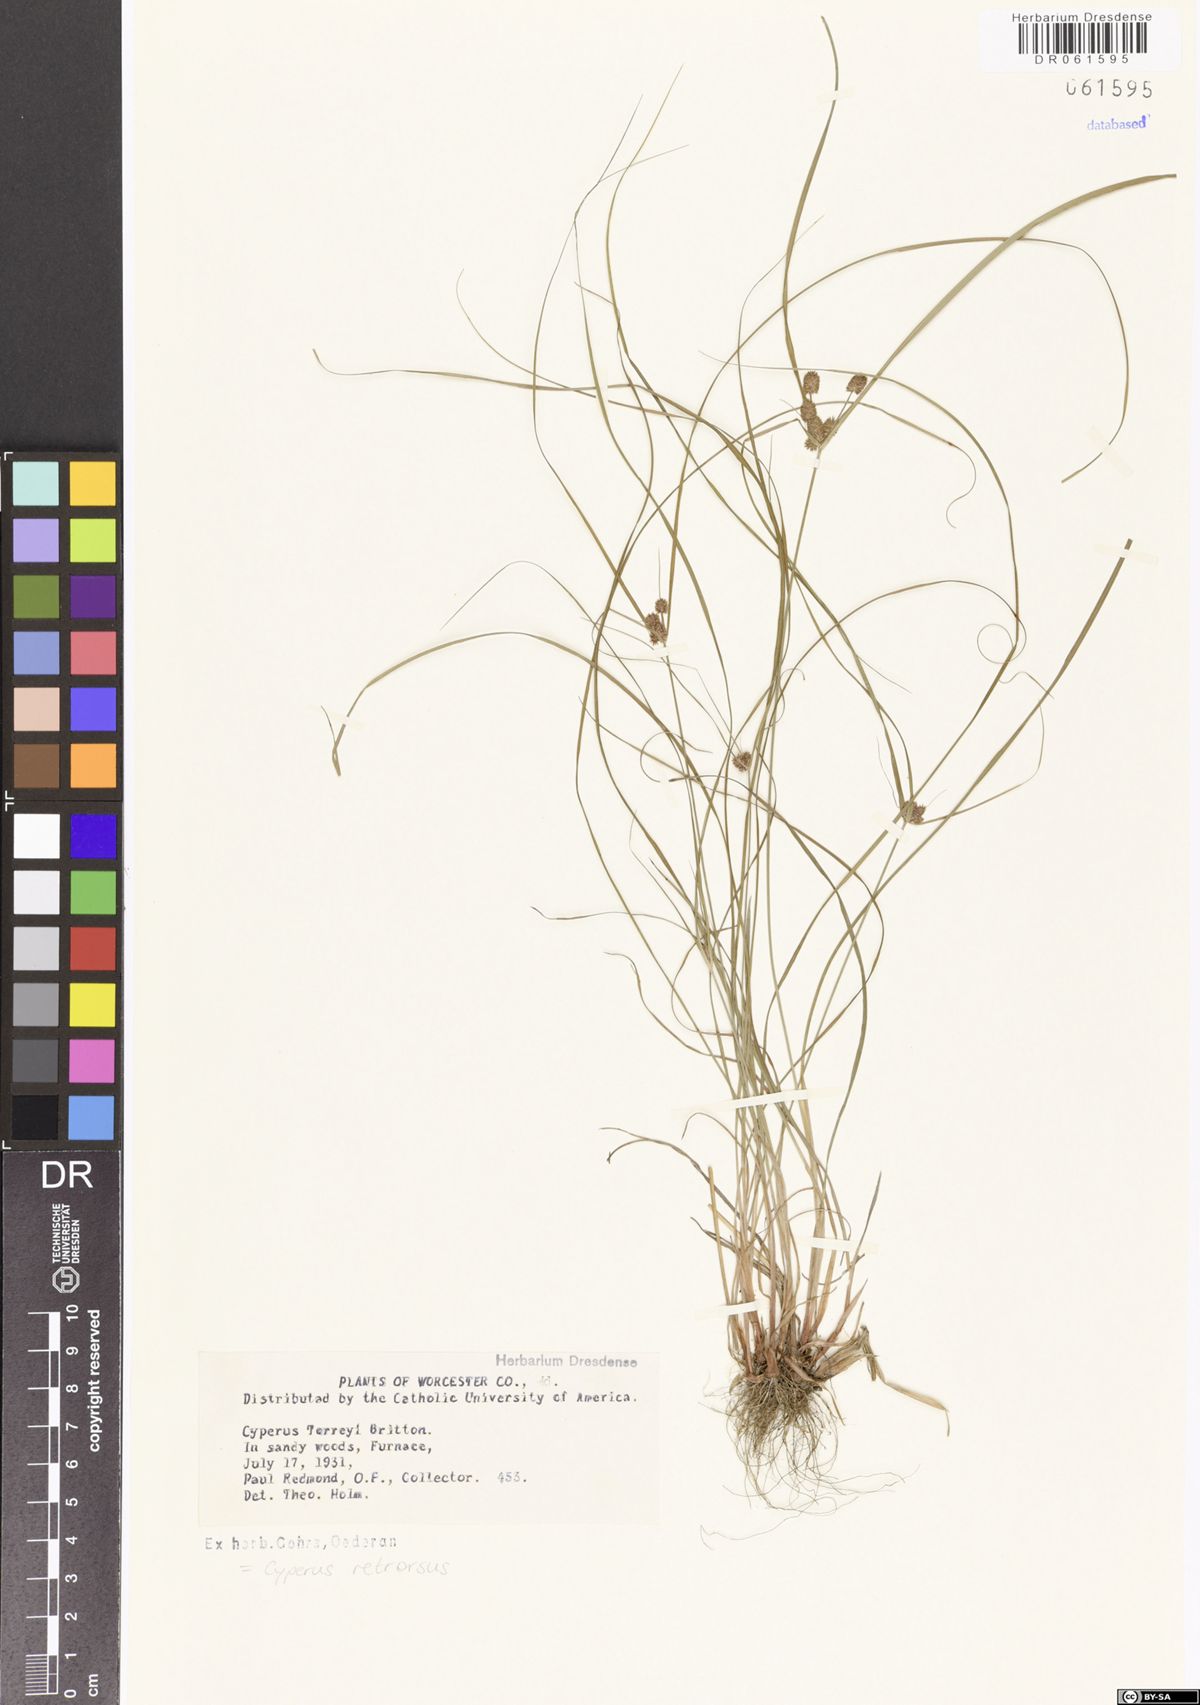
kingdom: Plantae
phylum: Tracheophyta
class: Liliopsida
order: Poales
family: Cyperaceae
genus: Cyperus
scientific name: Cyperus retrorsus
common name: Pinebarren flat sedge
